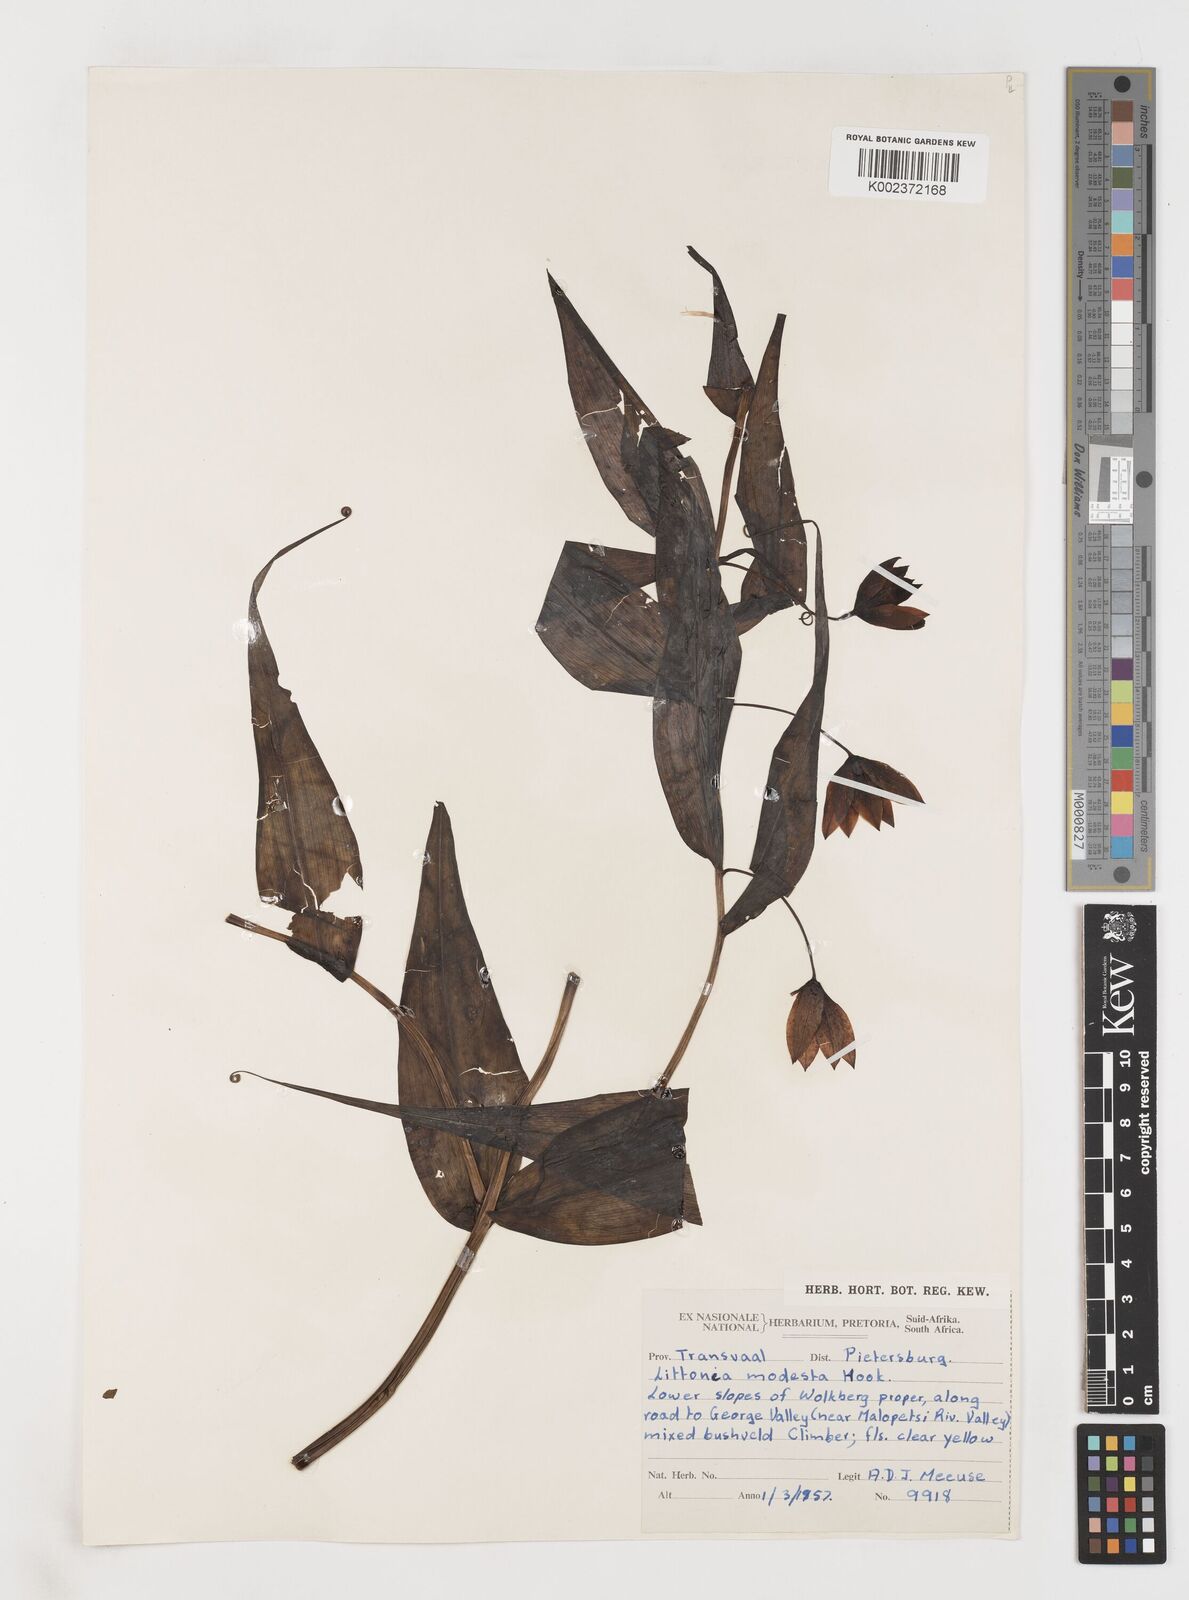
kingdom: Plantae
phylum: Tracheophyta
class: Liliopsida
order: Liliales
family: Colchicaceae
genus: Gloriosa
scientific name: Gloriosa modesta
